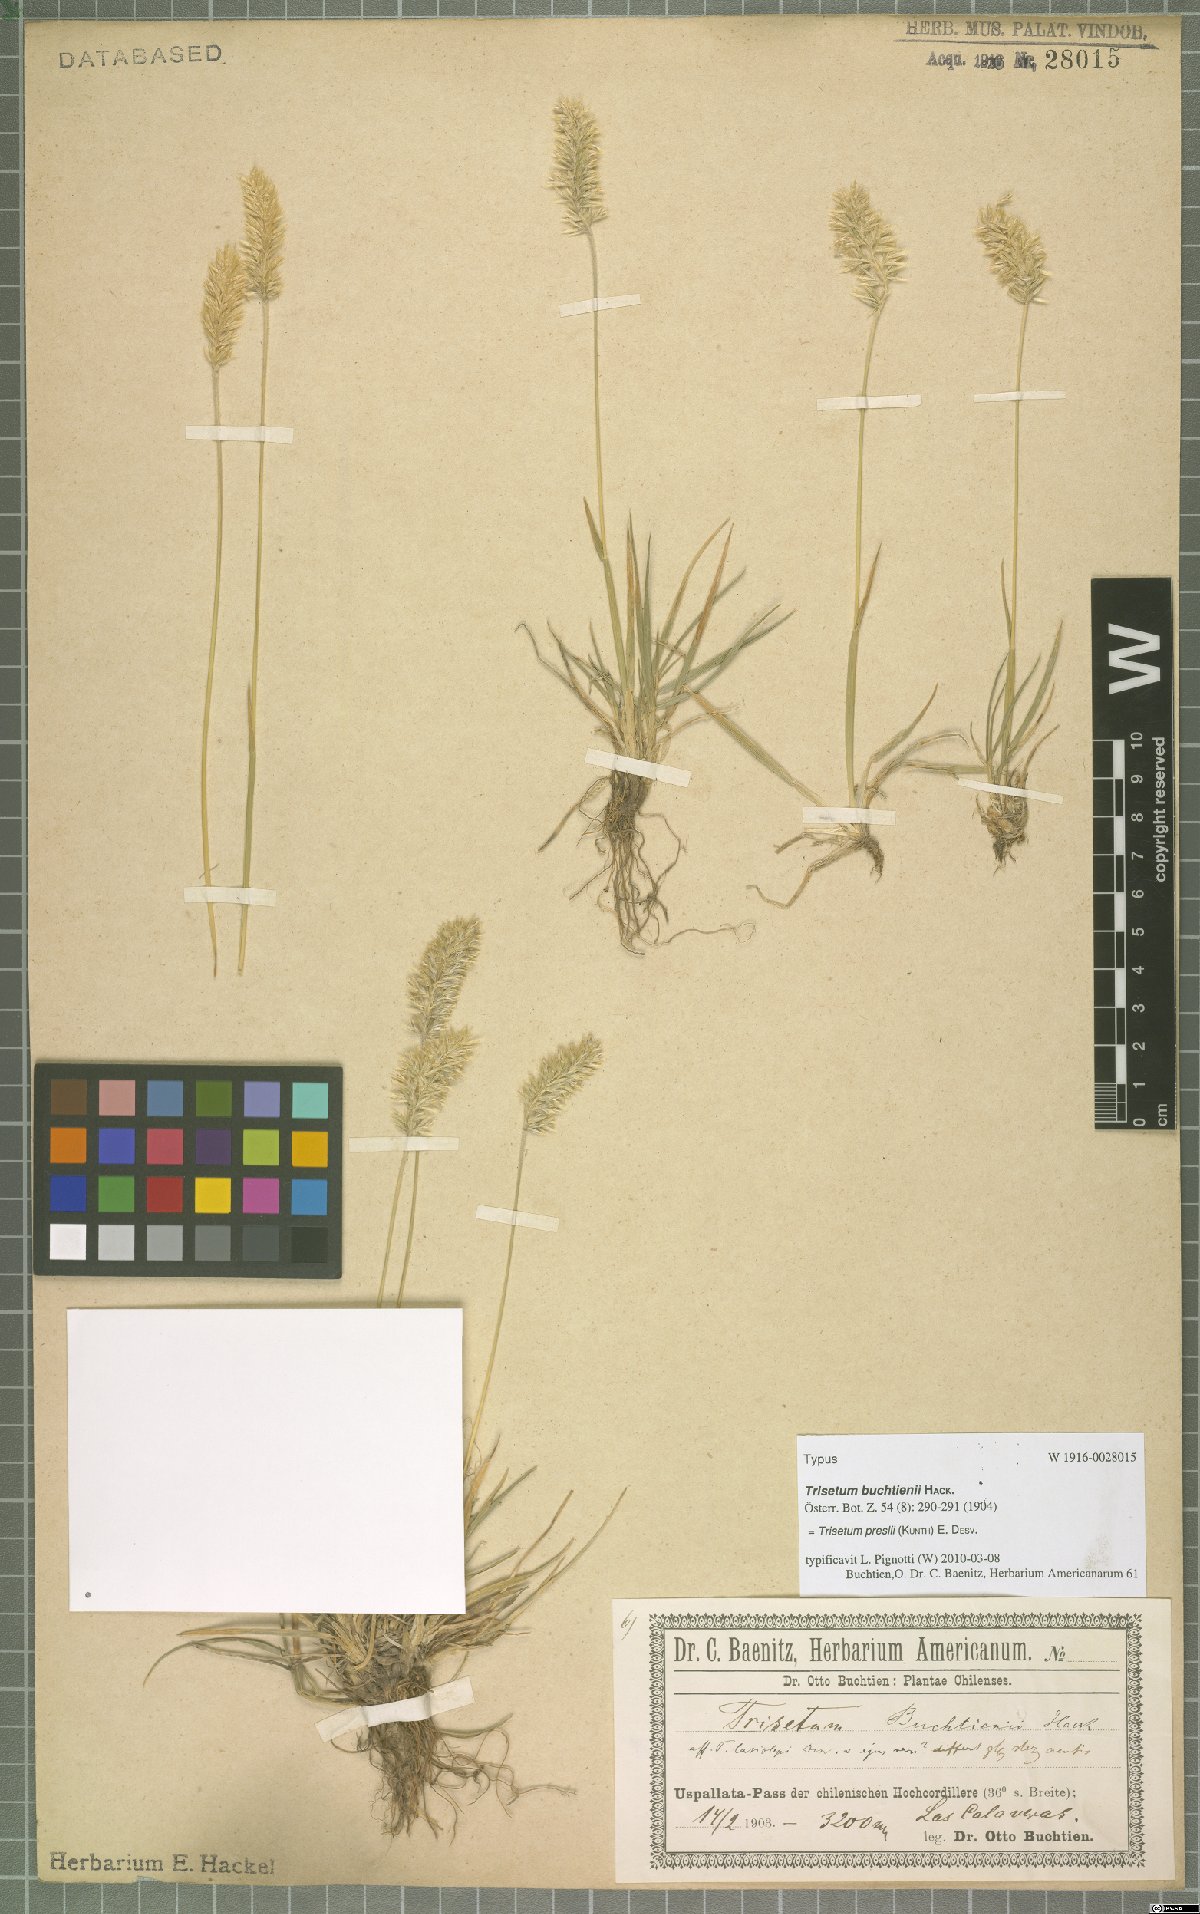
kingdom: Plantae
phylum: Tracheophyta
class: Liliopsida
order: Poales
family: Poaceae
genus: Koeleria
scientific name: Koeleria preslii
